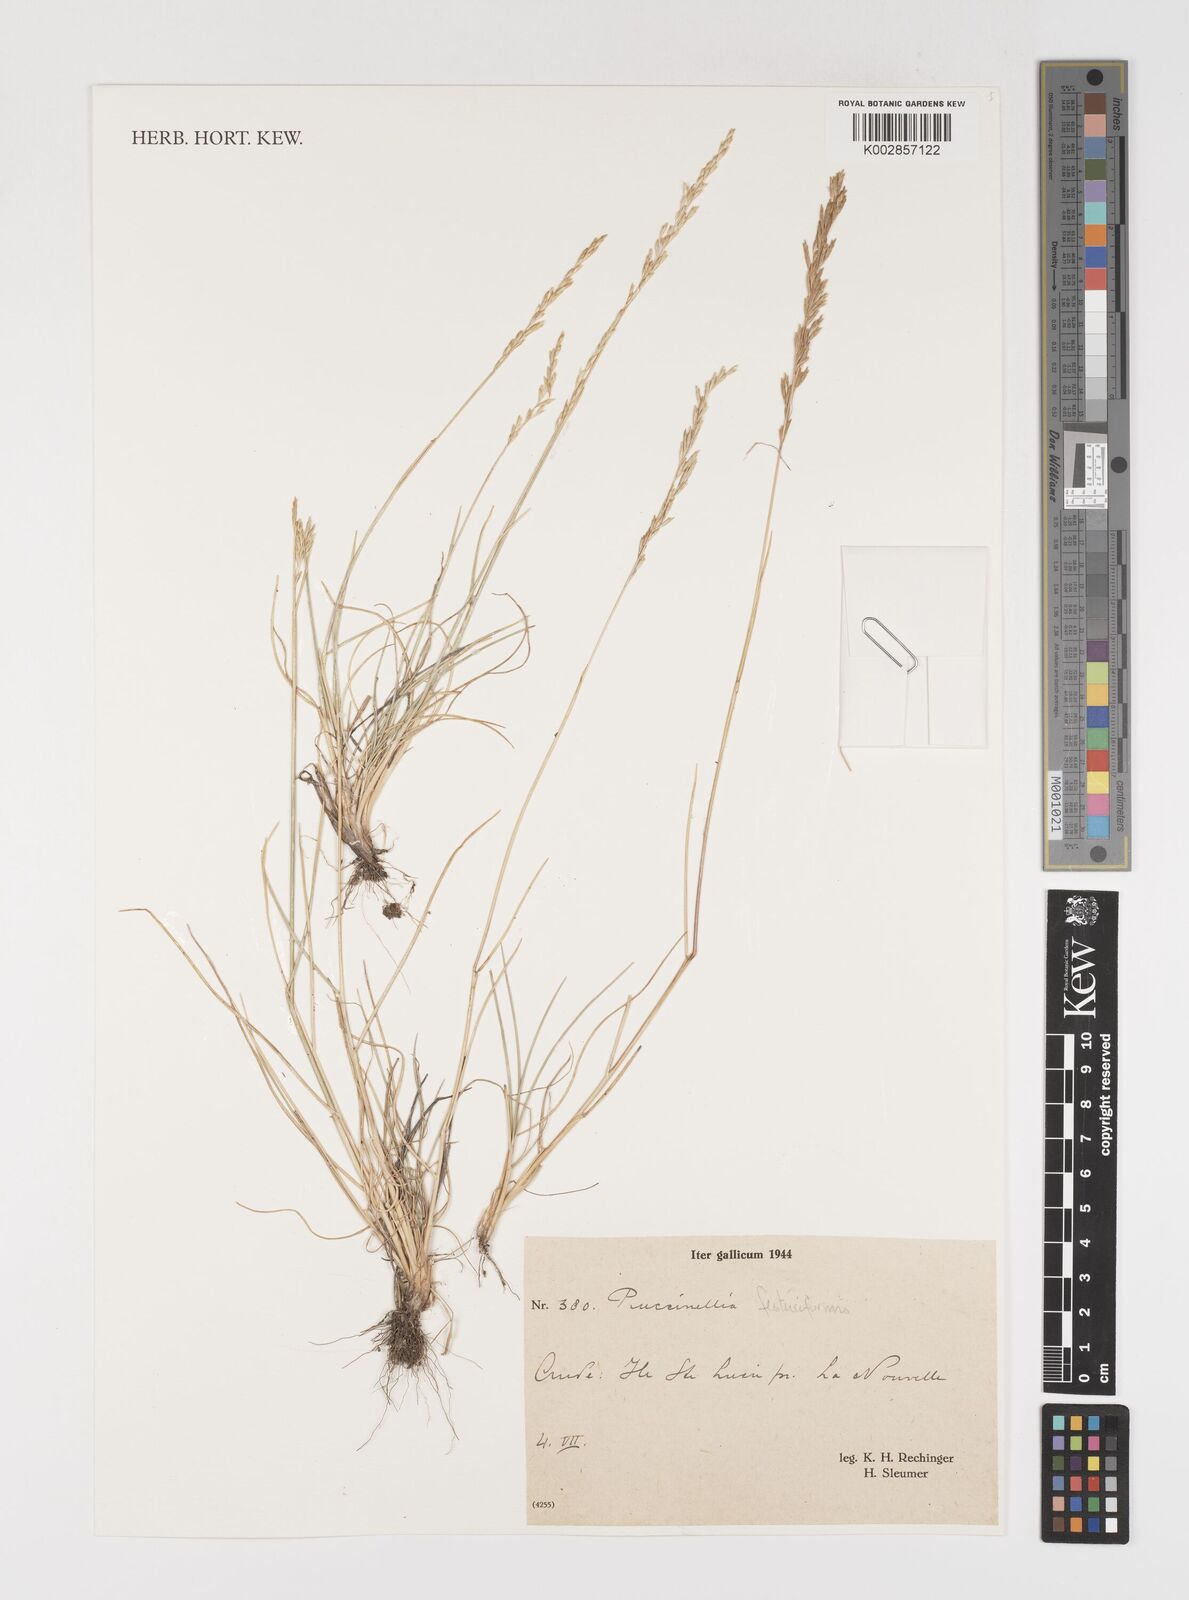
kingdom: Plantae
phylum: Tracheophyta
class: Liliopsida
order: Poales
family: Poaceae
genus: Puccinellia
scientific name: Puccinellia festuciformis
